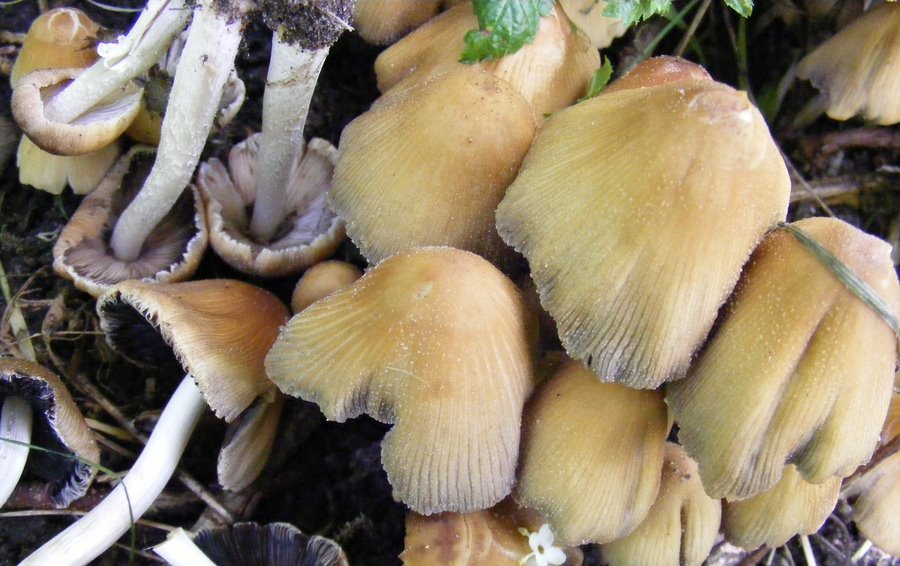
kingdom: Fungi
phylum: Basidiomycota
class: Agaricomycetes
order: Agaricales
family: Psathyrellaceae
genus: Coprinellus
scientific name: Coprinellus micaceus
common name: glimmer-blækhat
